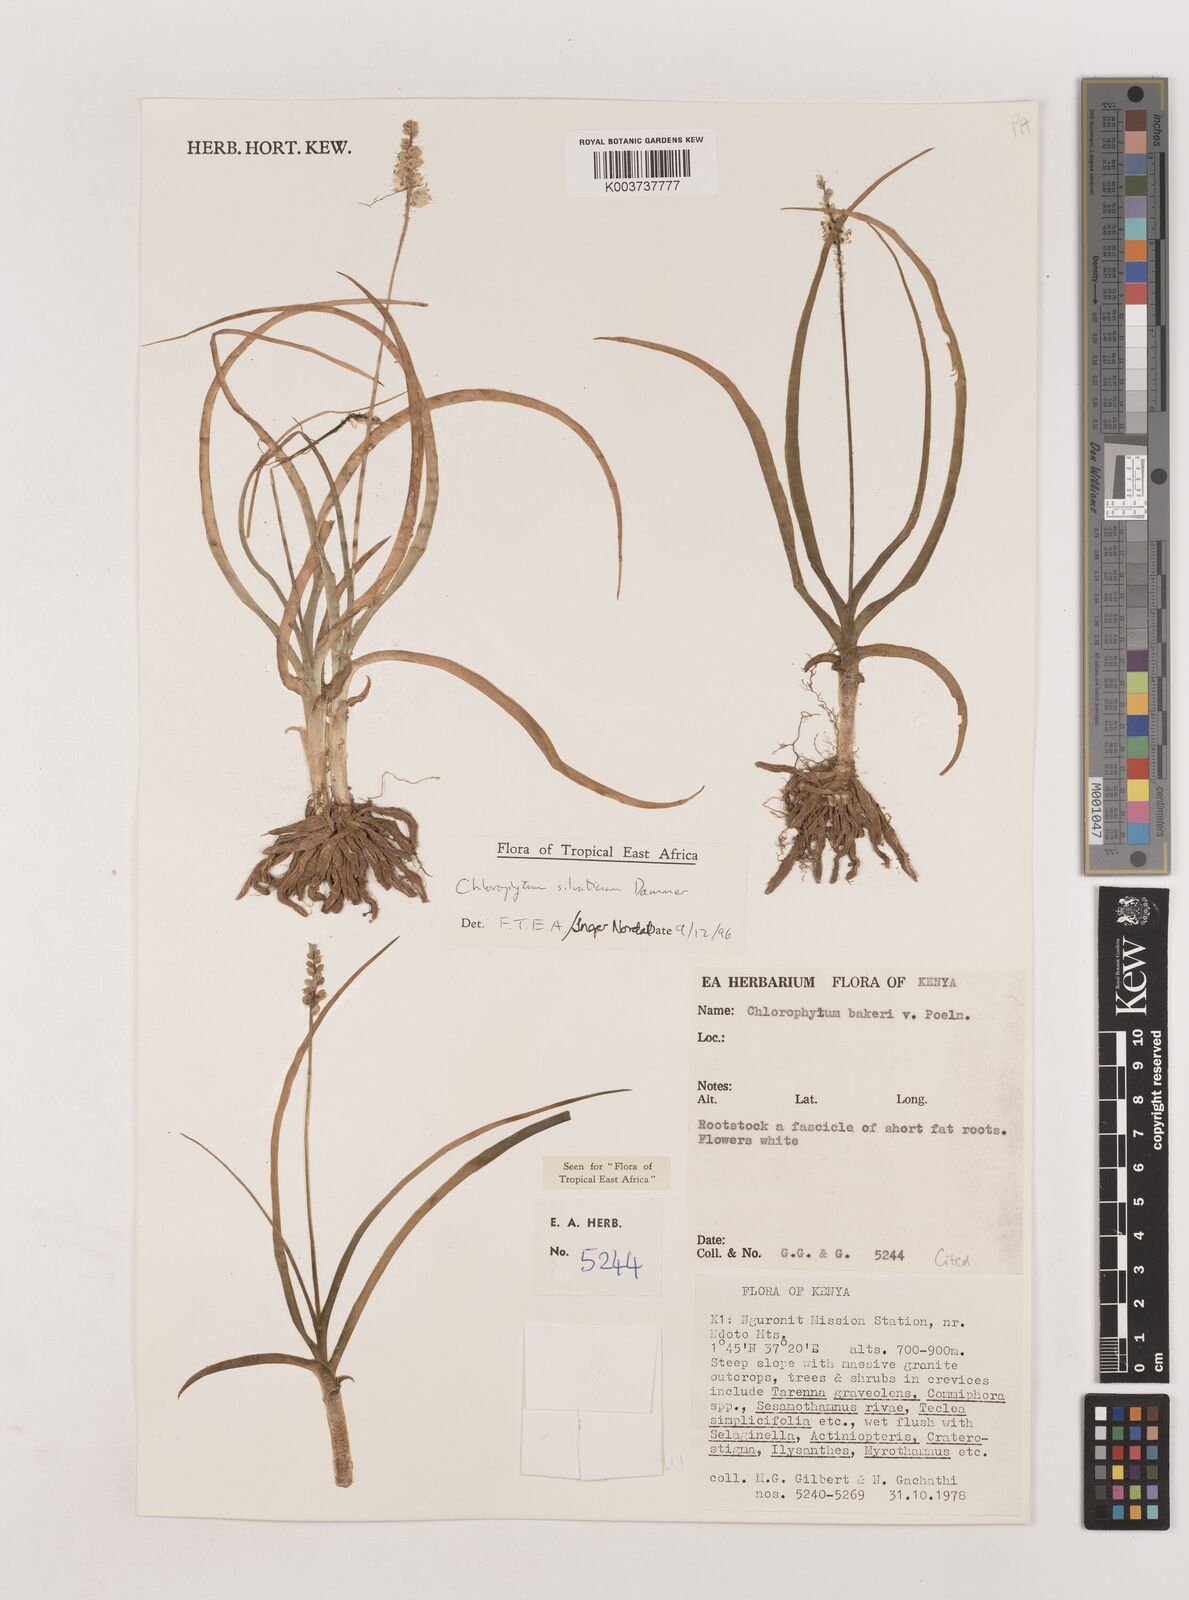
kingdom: Plantae
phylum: Tracheophyta
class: Liliopsida
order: Asparagales
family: Asparagaceae
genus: Chlorophytum
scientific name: Chlorophytum africanum
